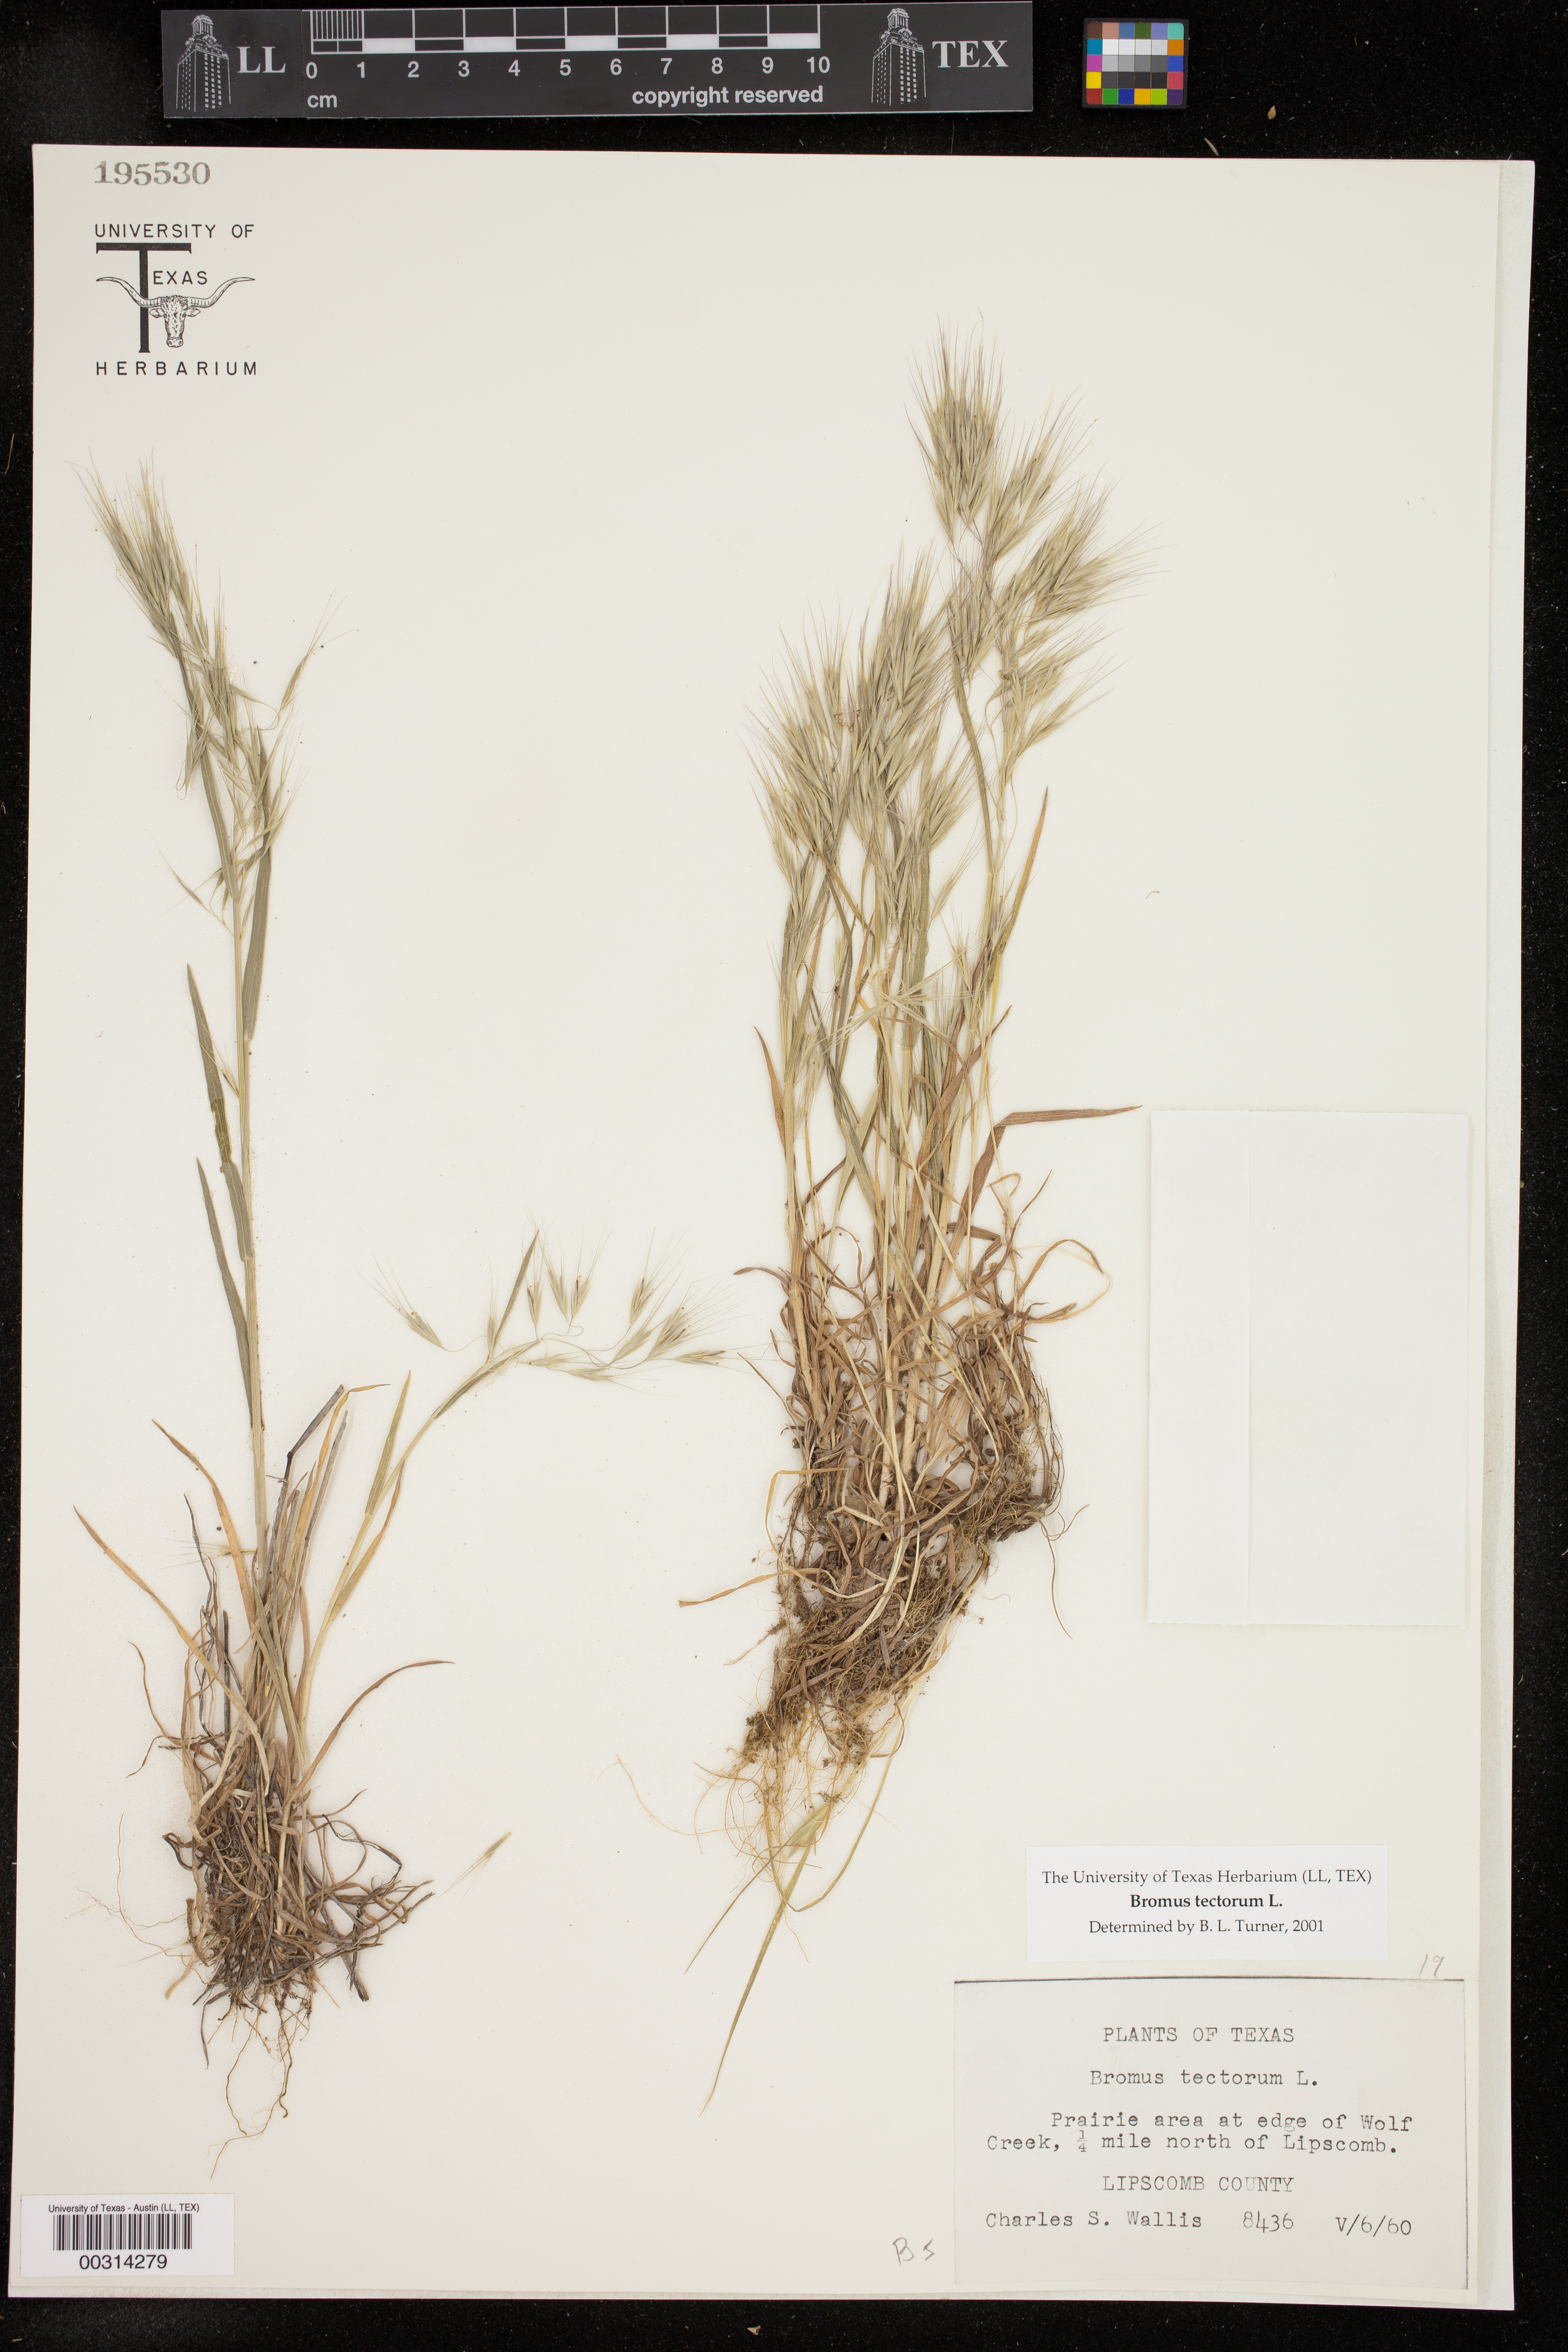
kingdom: Plantae
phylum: Tracheophyta
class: Liliopsida
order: Poales
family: Poaceae
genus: Bromus
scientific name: Bromus tectorum
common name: Cheatgrass
